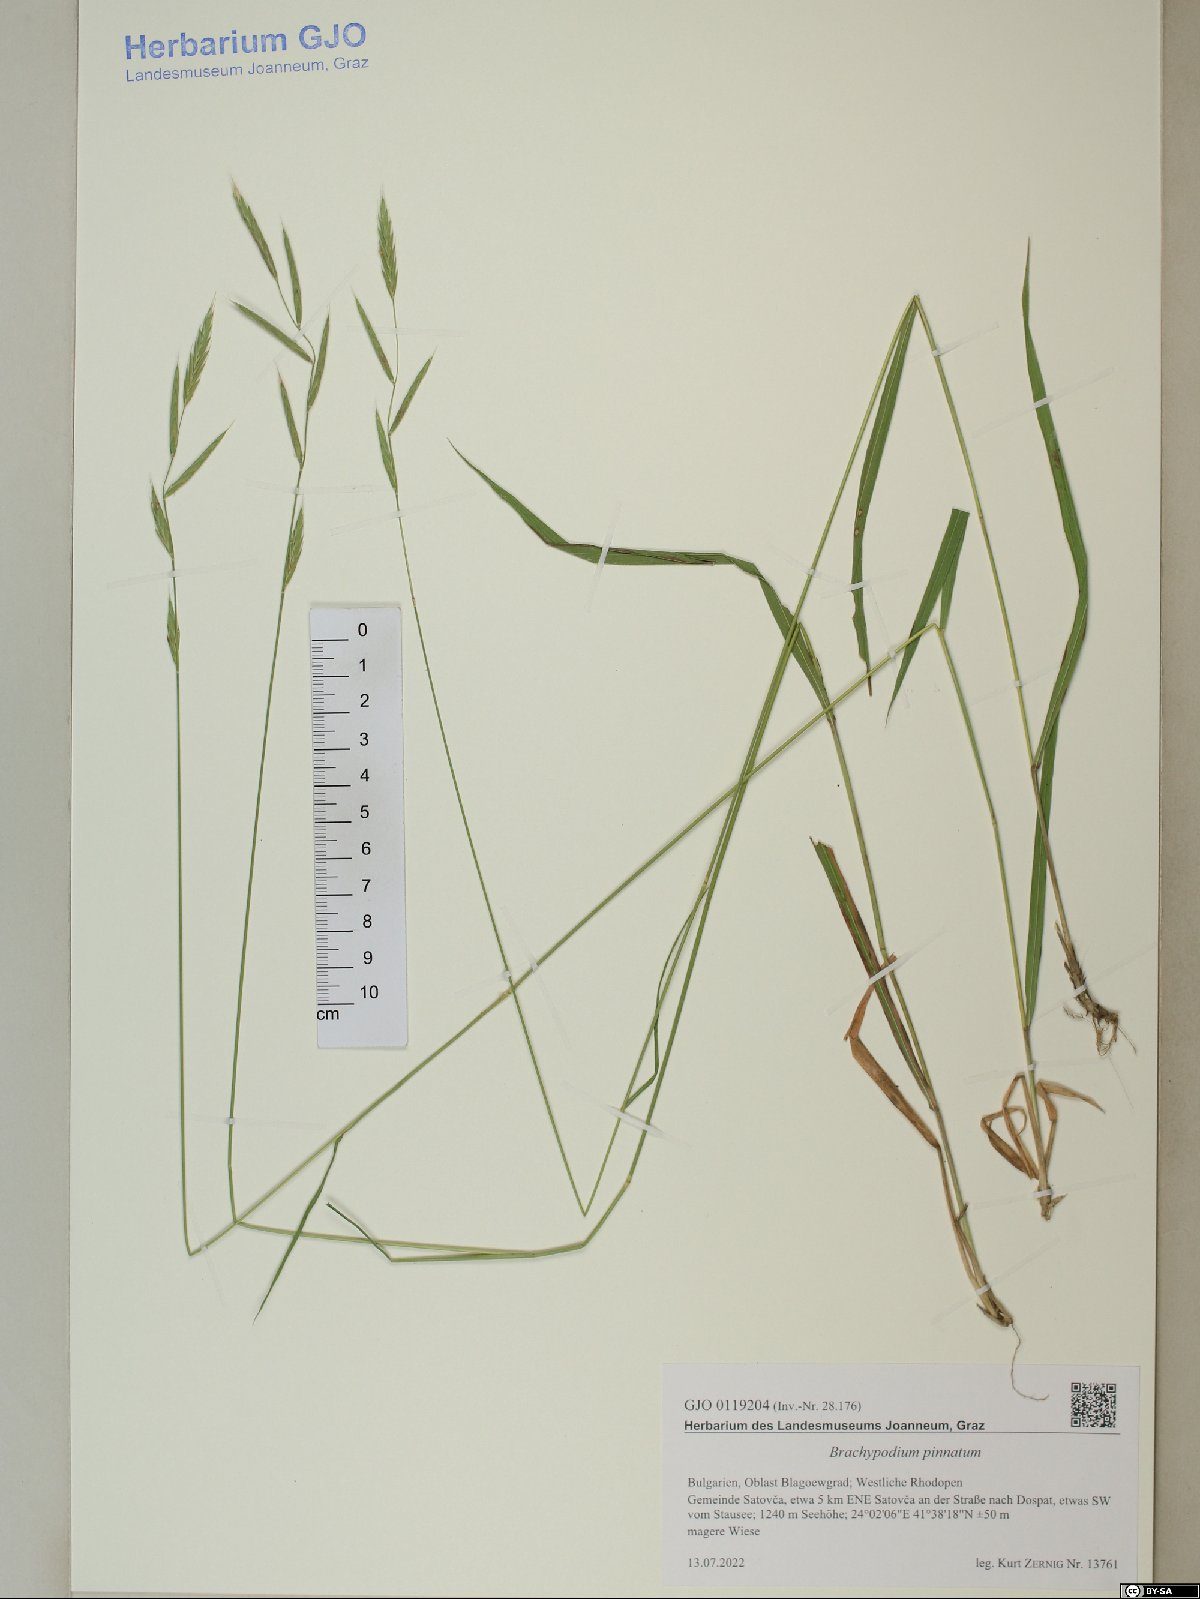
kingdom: Plantae
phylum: Tracheophyta
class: Liliopsida
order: Poales
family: Poaceae
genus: Brachypodium
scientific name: Brachypodium pinnatum
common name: Tor grass
